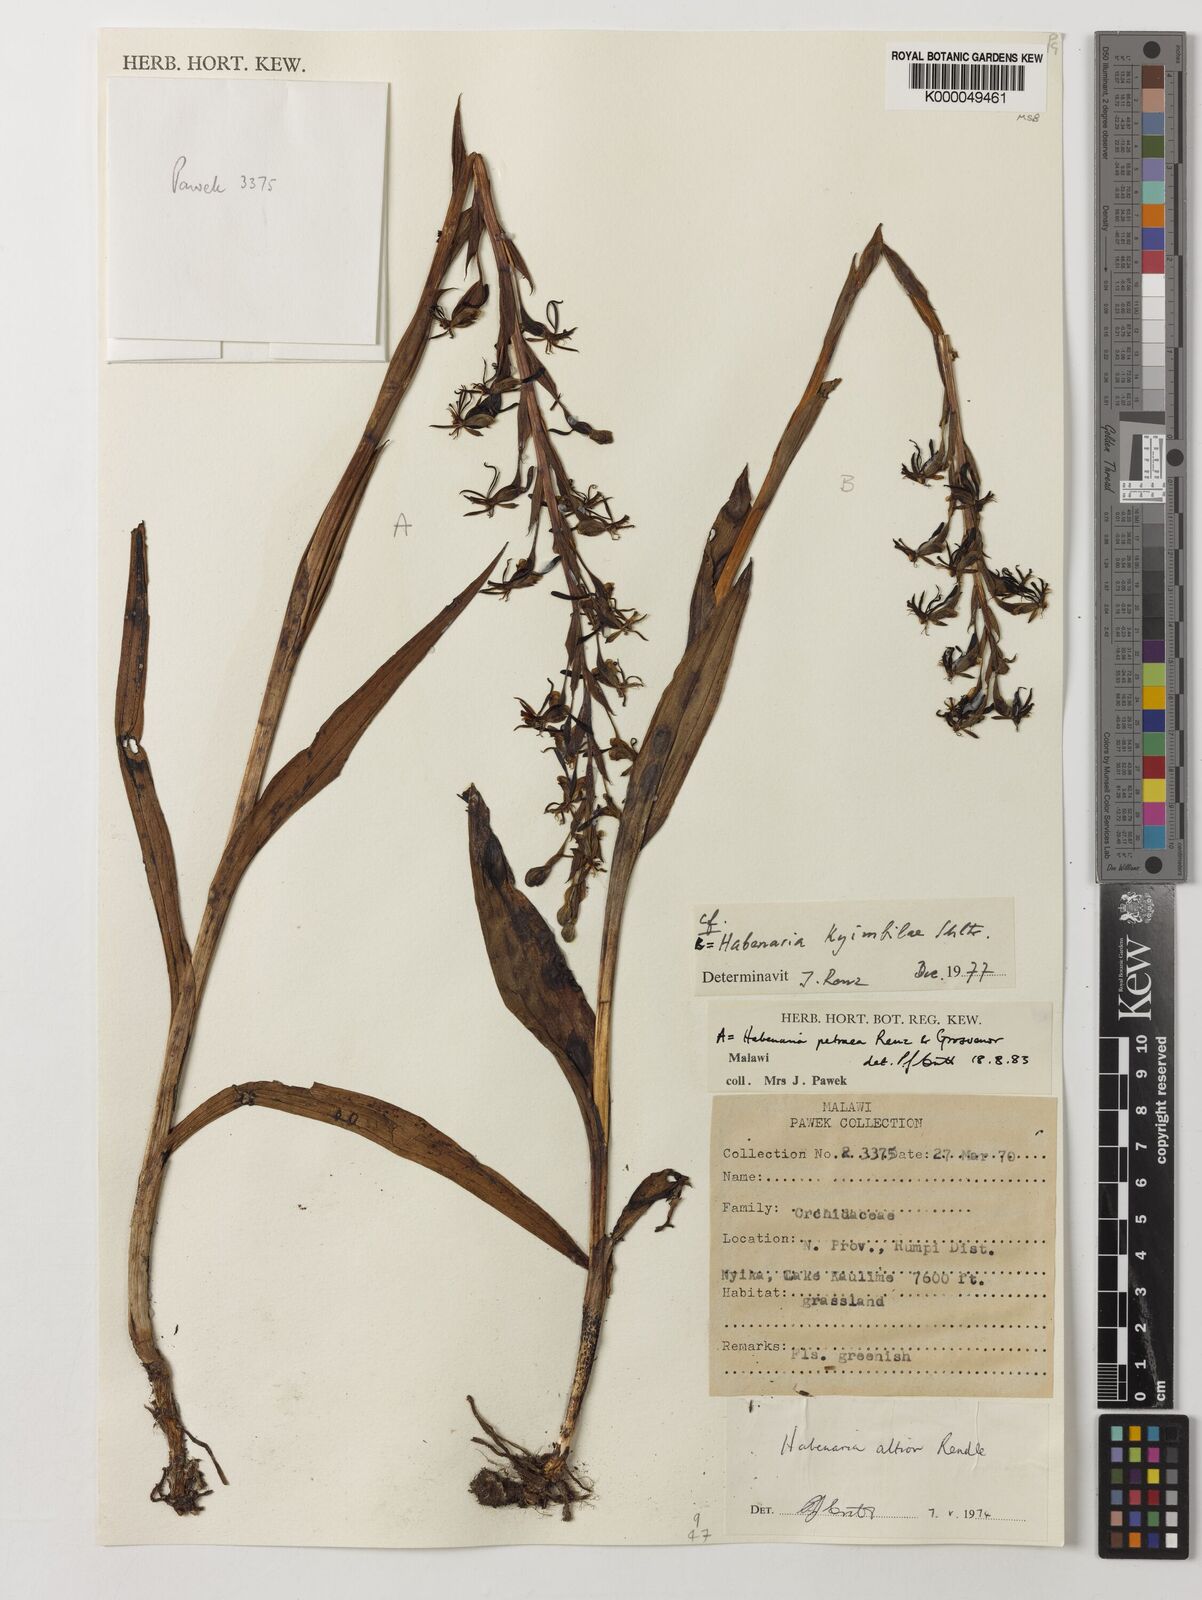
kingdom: Plantae
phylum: Tracheophyta
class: Liliopsida
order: Asparagales
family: Orchidaceae
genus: Habenaria
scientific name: Habenaria petraea
